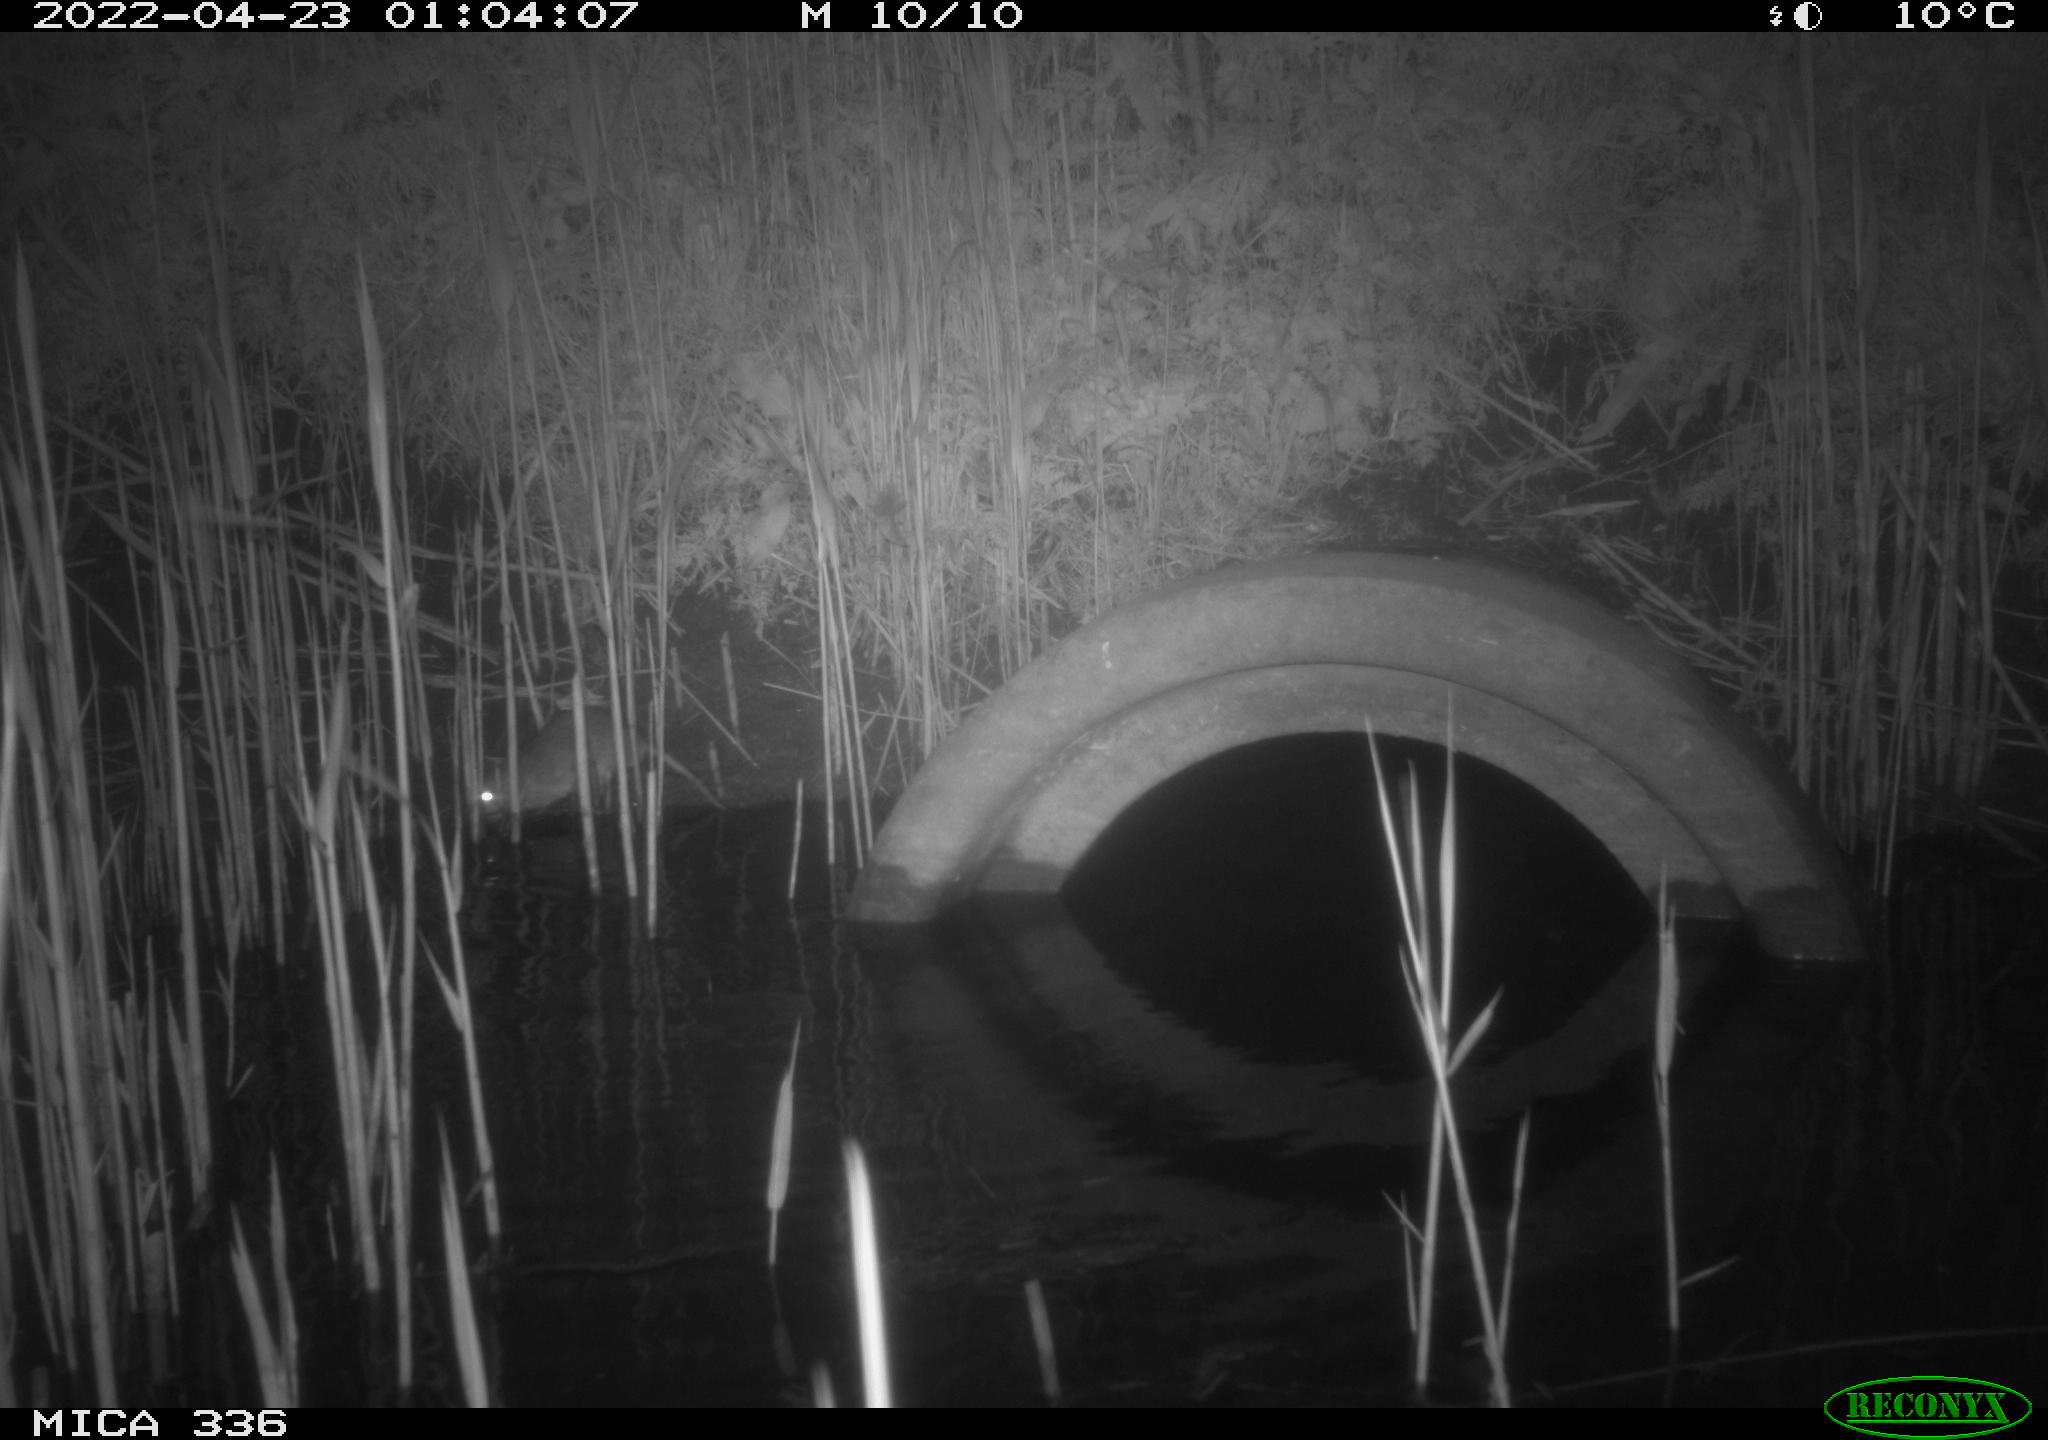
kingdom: Animalia
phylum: Chordata
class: Mammalia
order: Rodentia
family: Muridae
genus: Rattus
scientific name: Rattus norvegicus
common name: Brown rat
